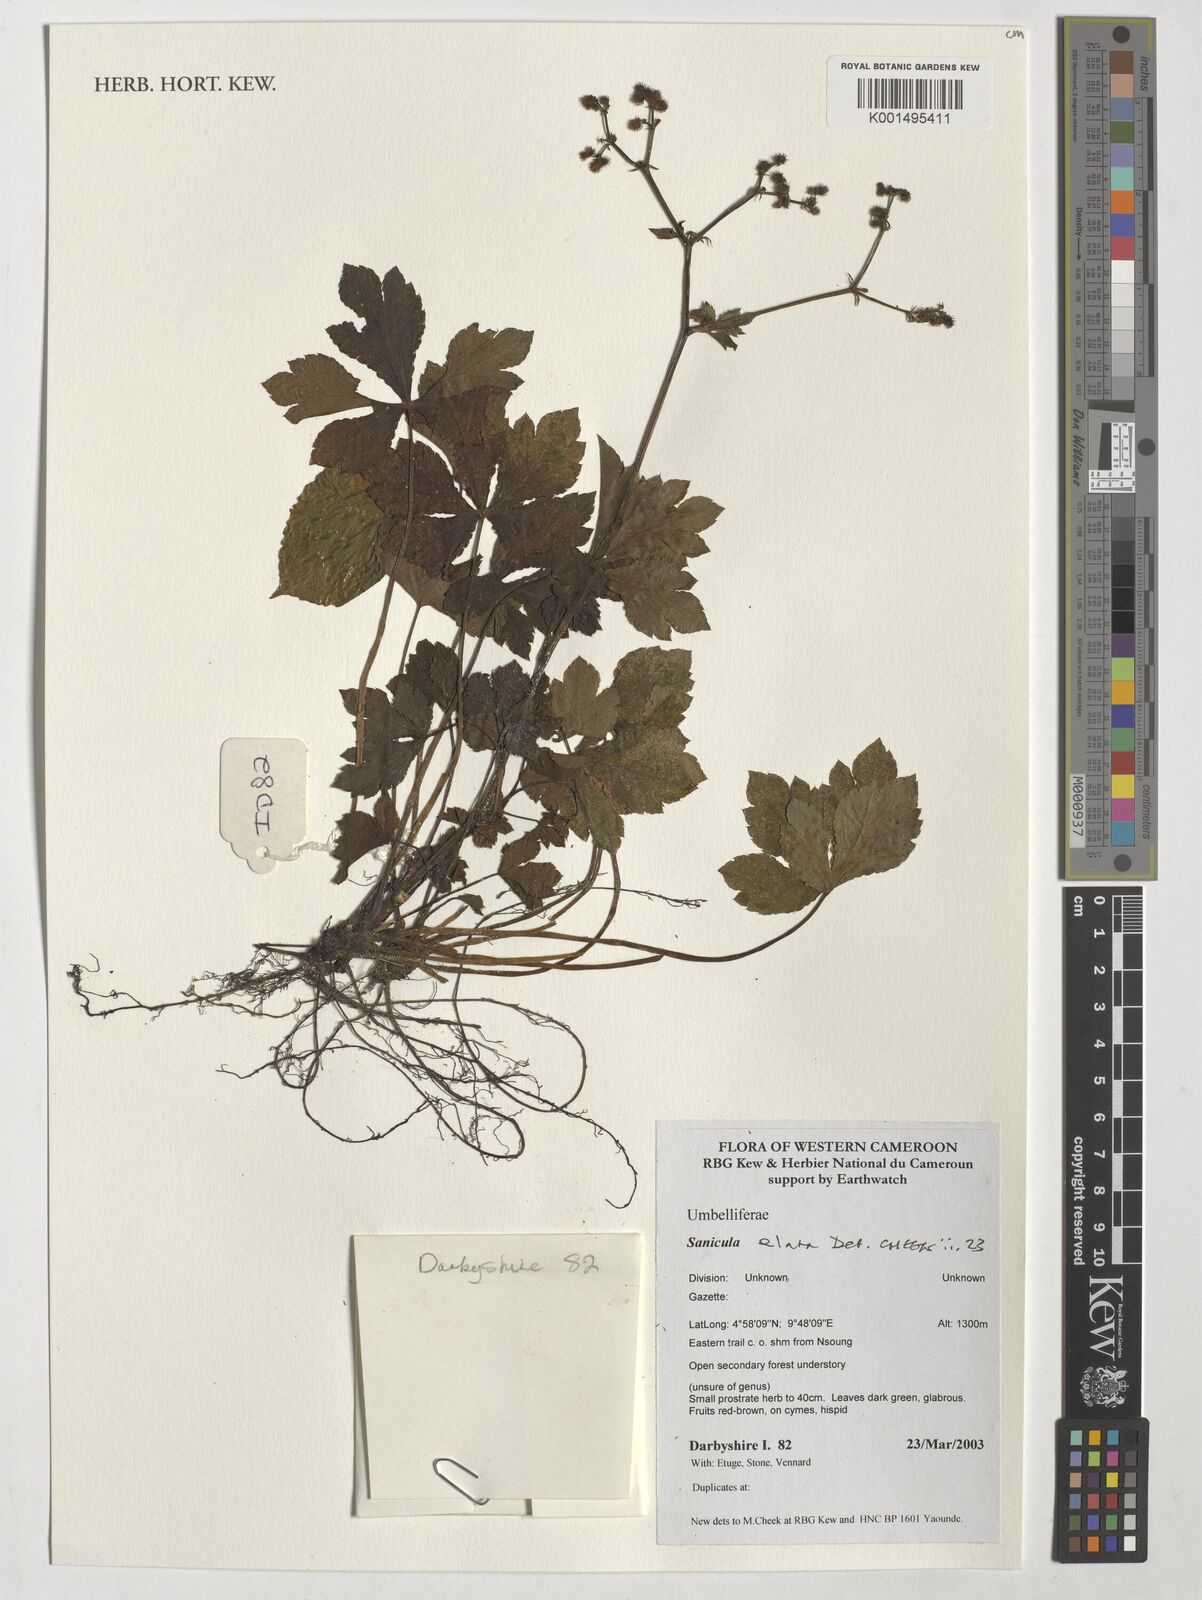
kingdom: Plantae
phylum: Tracheophyta
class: Magnoliopsida
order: Apiales
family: Apiaceae
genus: Sanicula
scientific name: Sanicula elata
